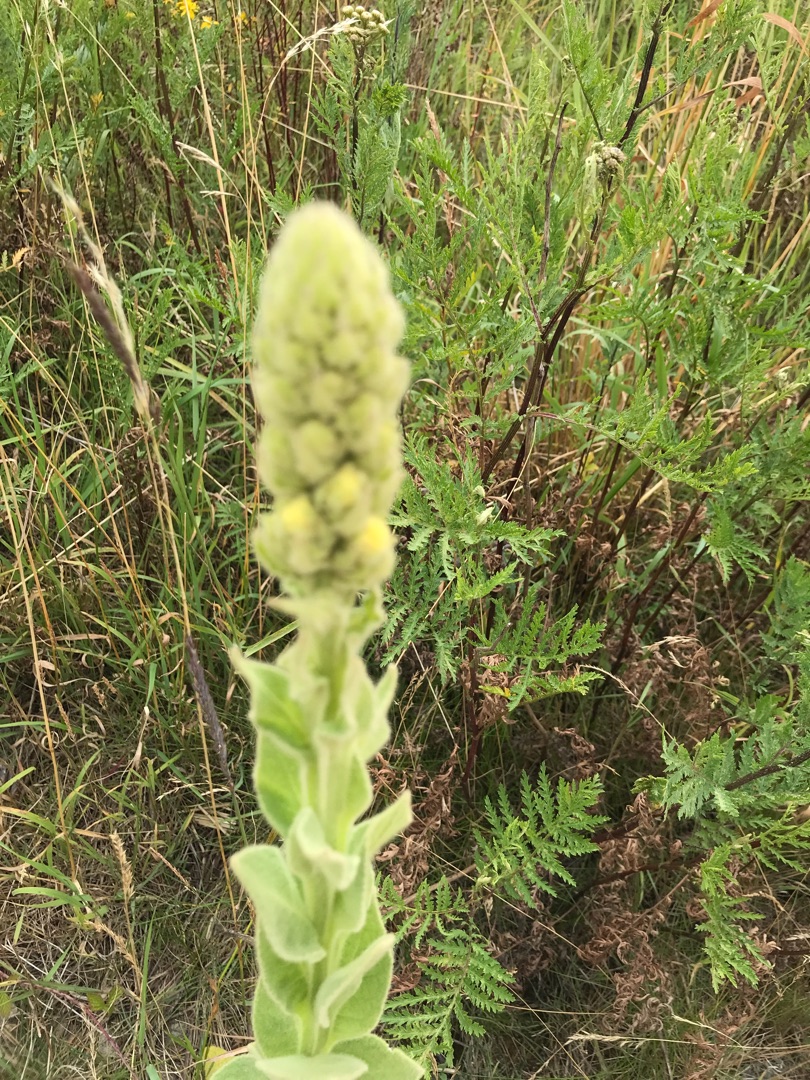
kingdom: Plantae
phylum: Tracheophyta
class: Magnoliopsida
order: Lamiales
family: Scrophulariaceae
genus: Verbascum
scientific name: Verbascum
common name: Kongelysslægten
